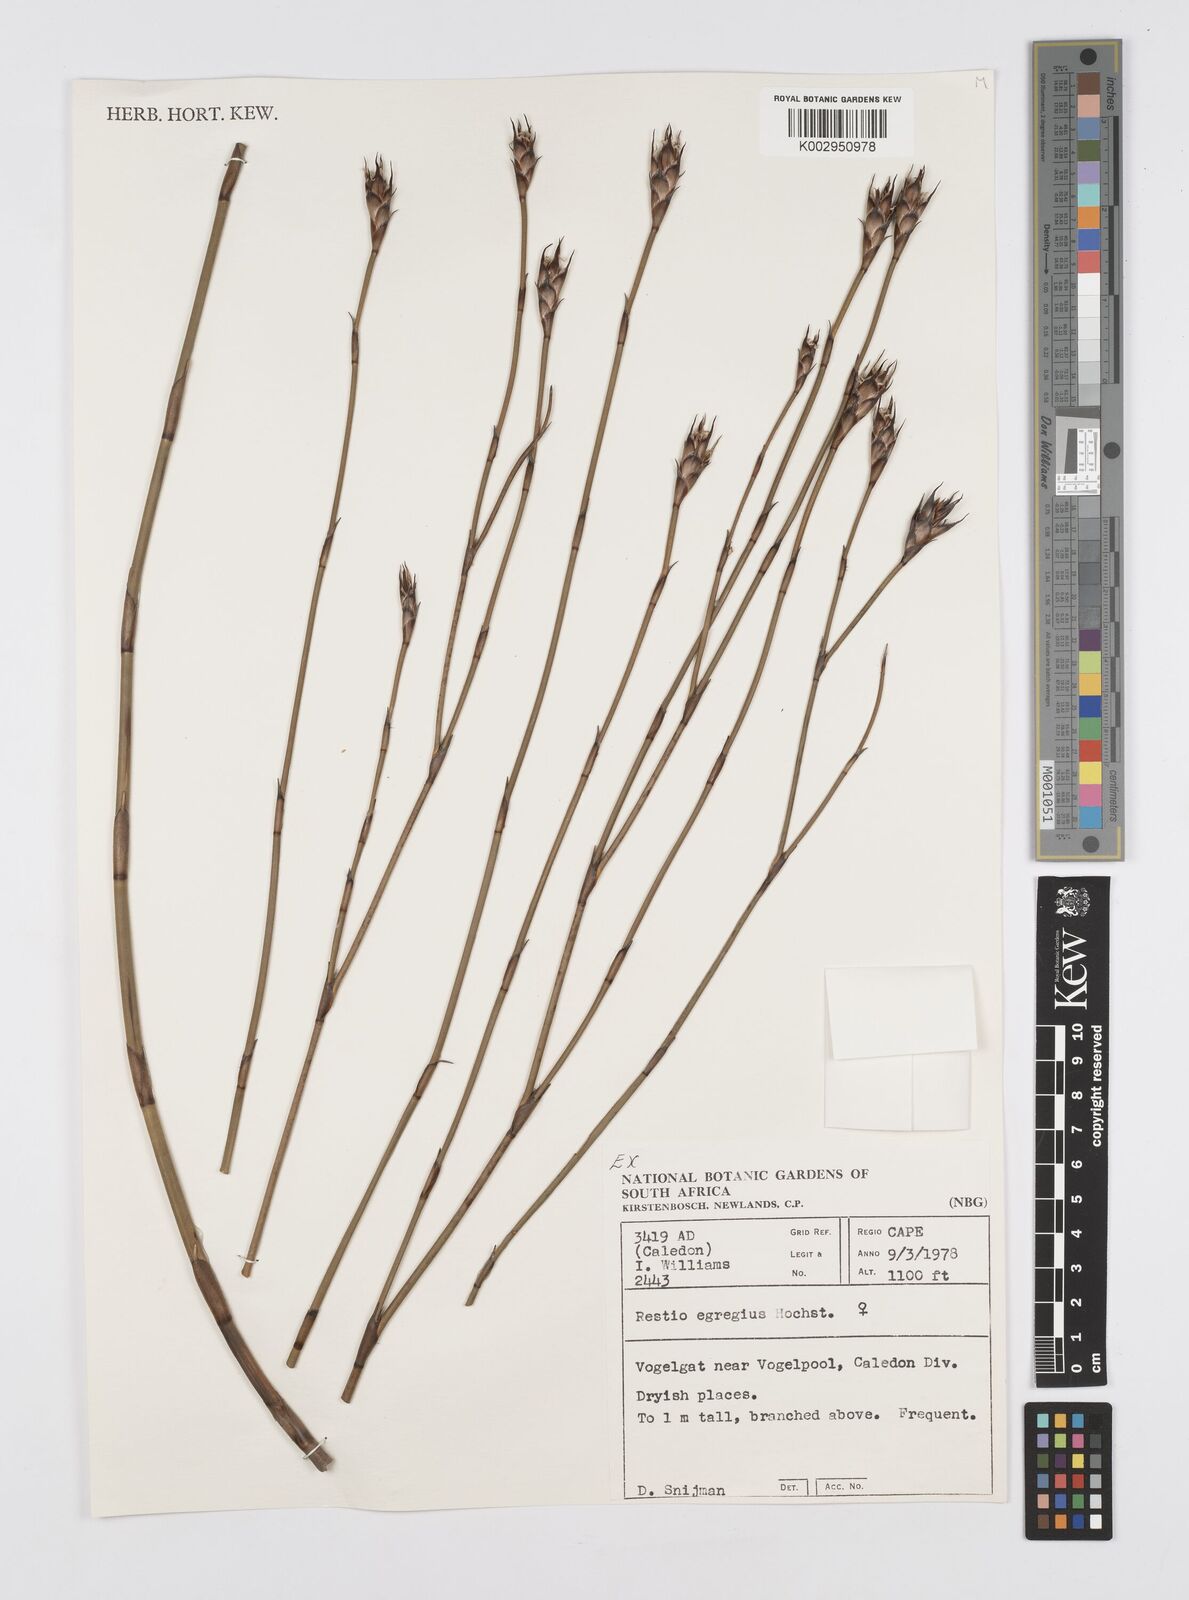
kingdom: Plantae
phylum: Tracheophyta
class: Liliopsida
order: Poales
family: Restionaceae
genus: Restio
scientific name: Restio egregius
